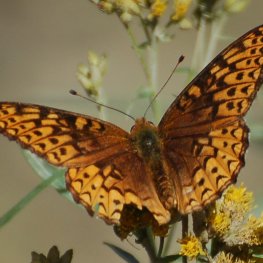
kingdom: Animalia
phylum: Arthropoda
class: Insecta
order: Lepidoptera
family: Nymphalidae
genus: Speyeria
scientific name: Speyeria atlantis
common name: Atlantis Fritillary
